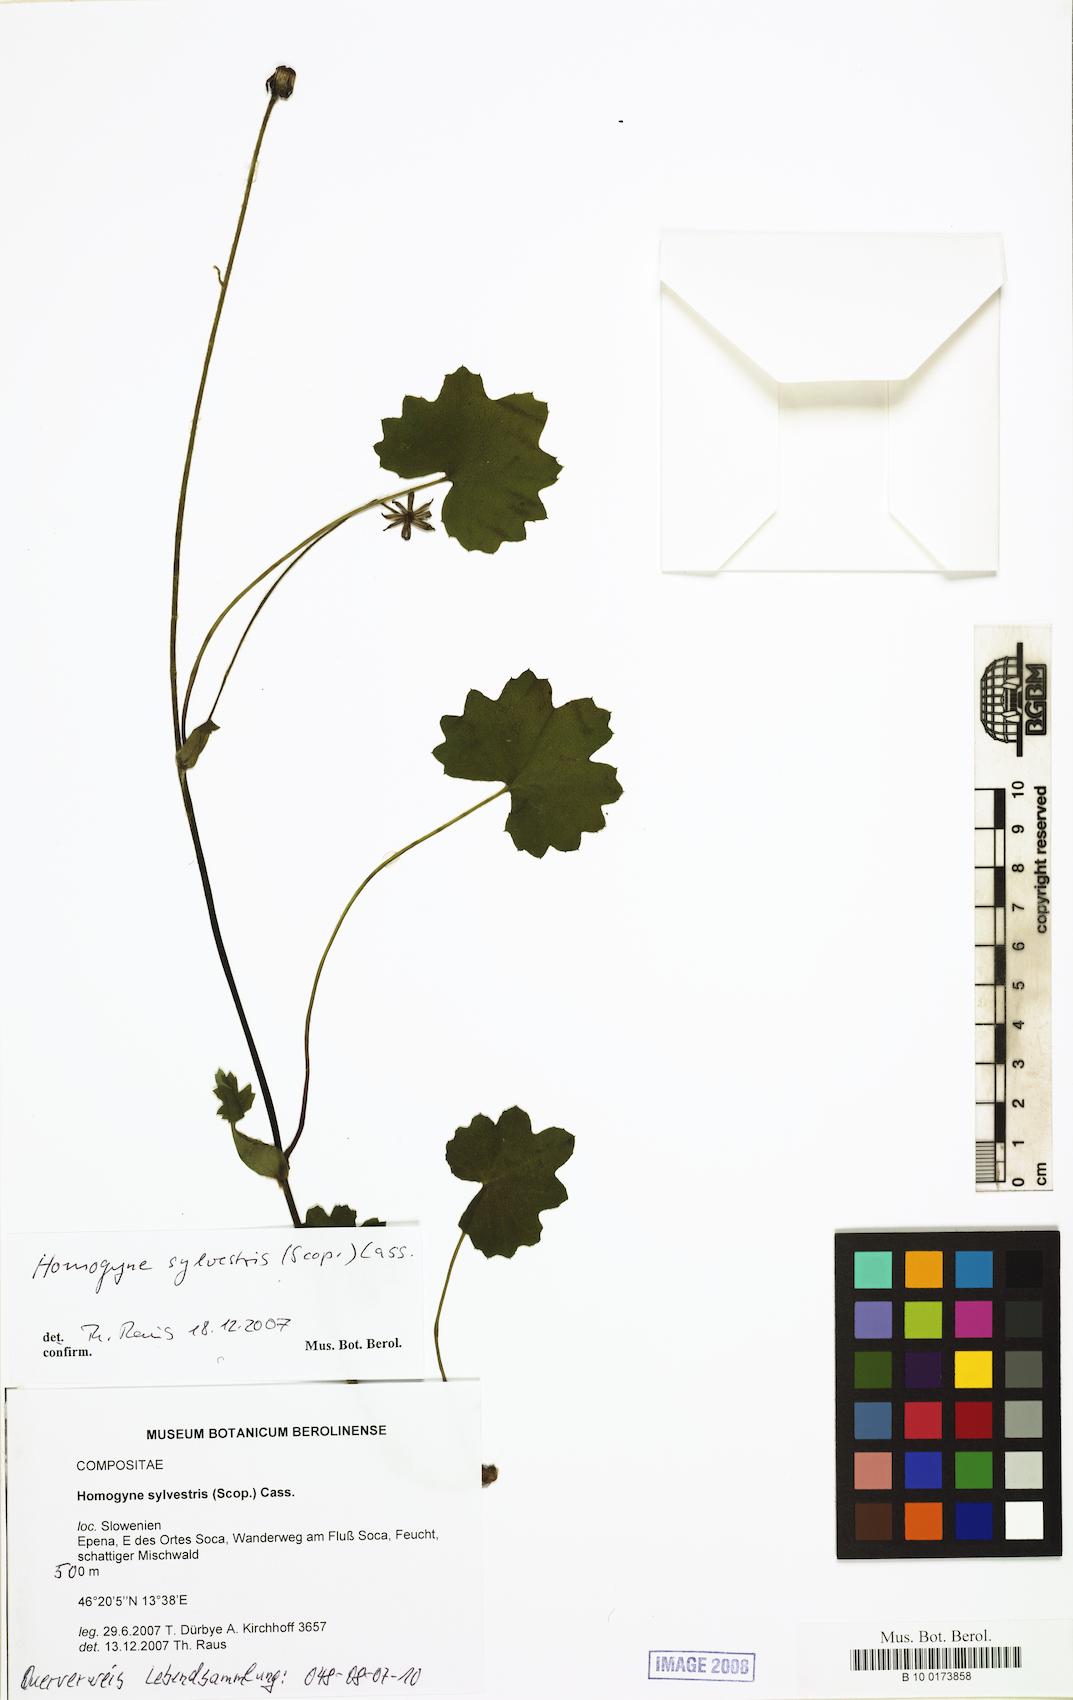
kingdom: Plantae
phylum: Tracheophyta
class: Magnoliopsida
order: Asterales
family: Asteraceae
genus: Homogyne
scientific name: Homogyne sylvestris
